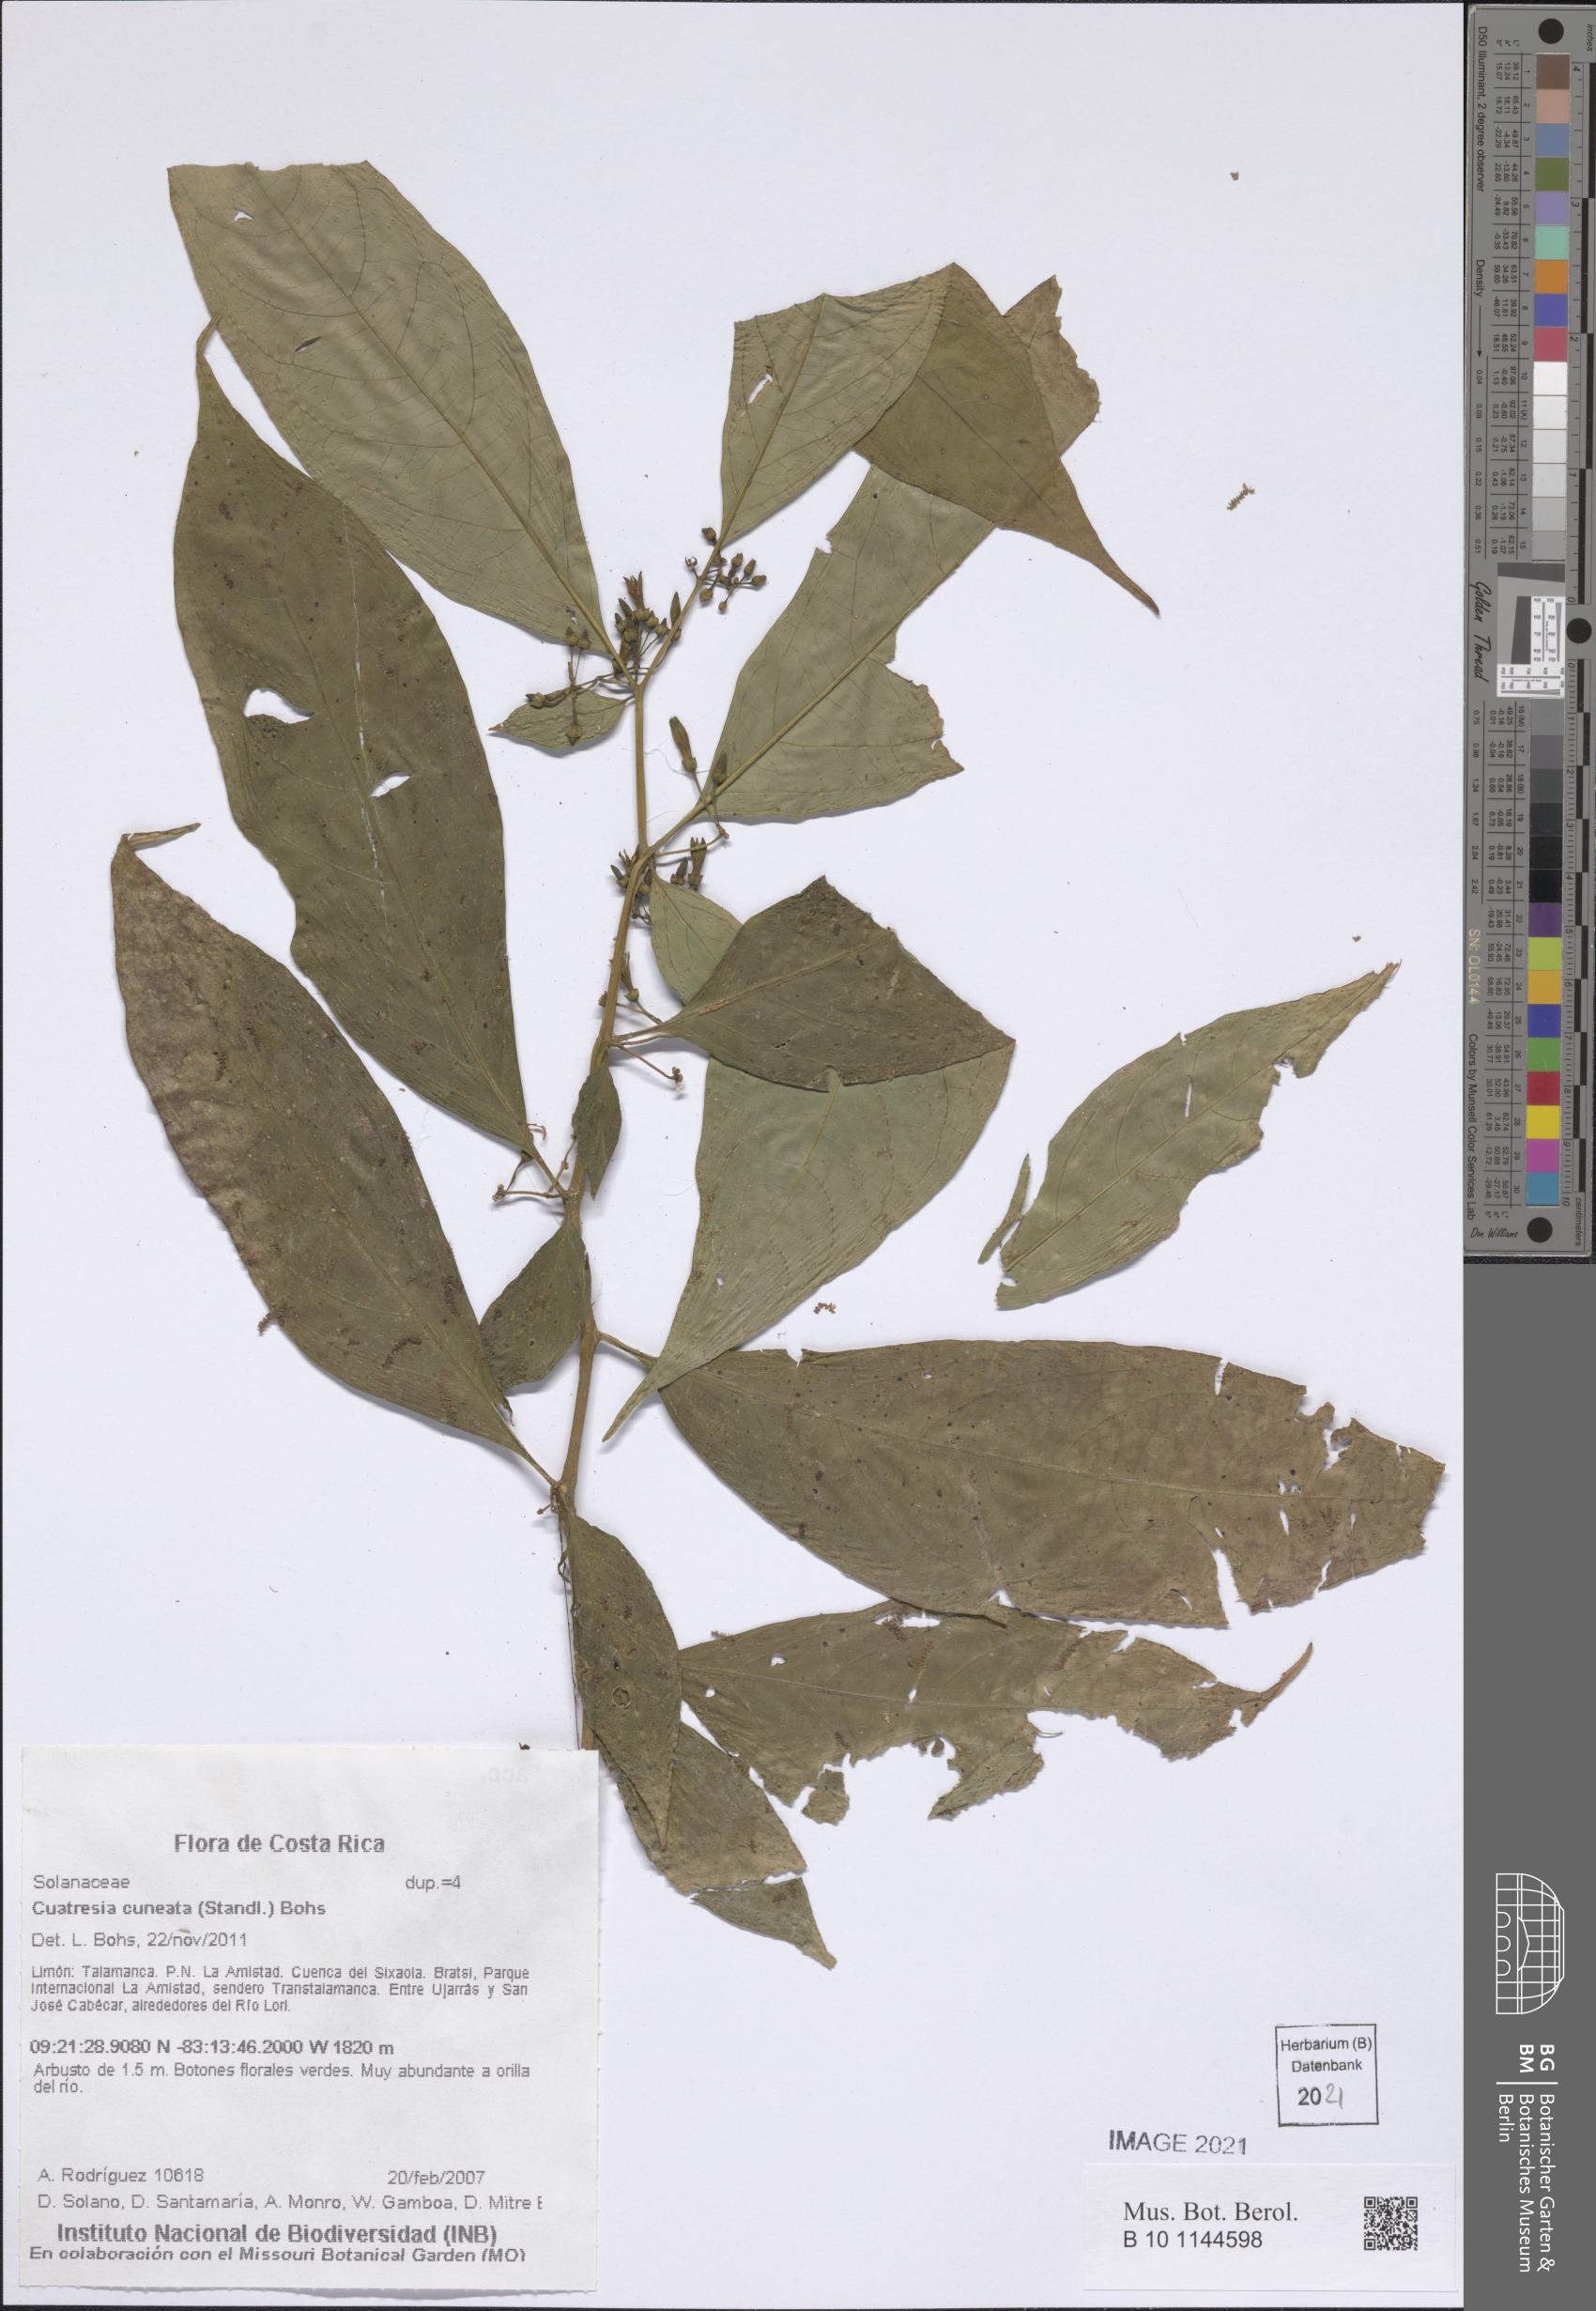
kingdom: Plantae
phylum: Tracheophyta
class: Magnoliopsida
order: Solanales
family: Solanaceae
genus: Cuatresia
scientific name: Cuatresia cuneata
